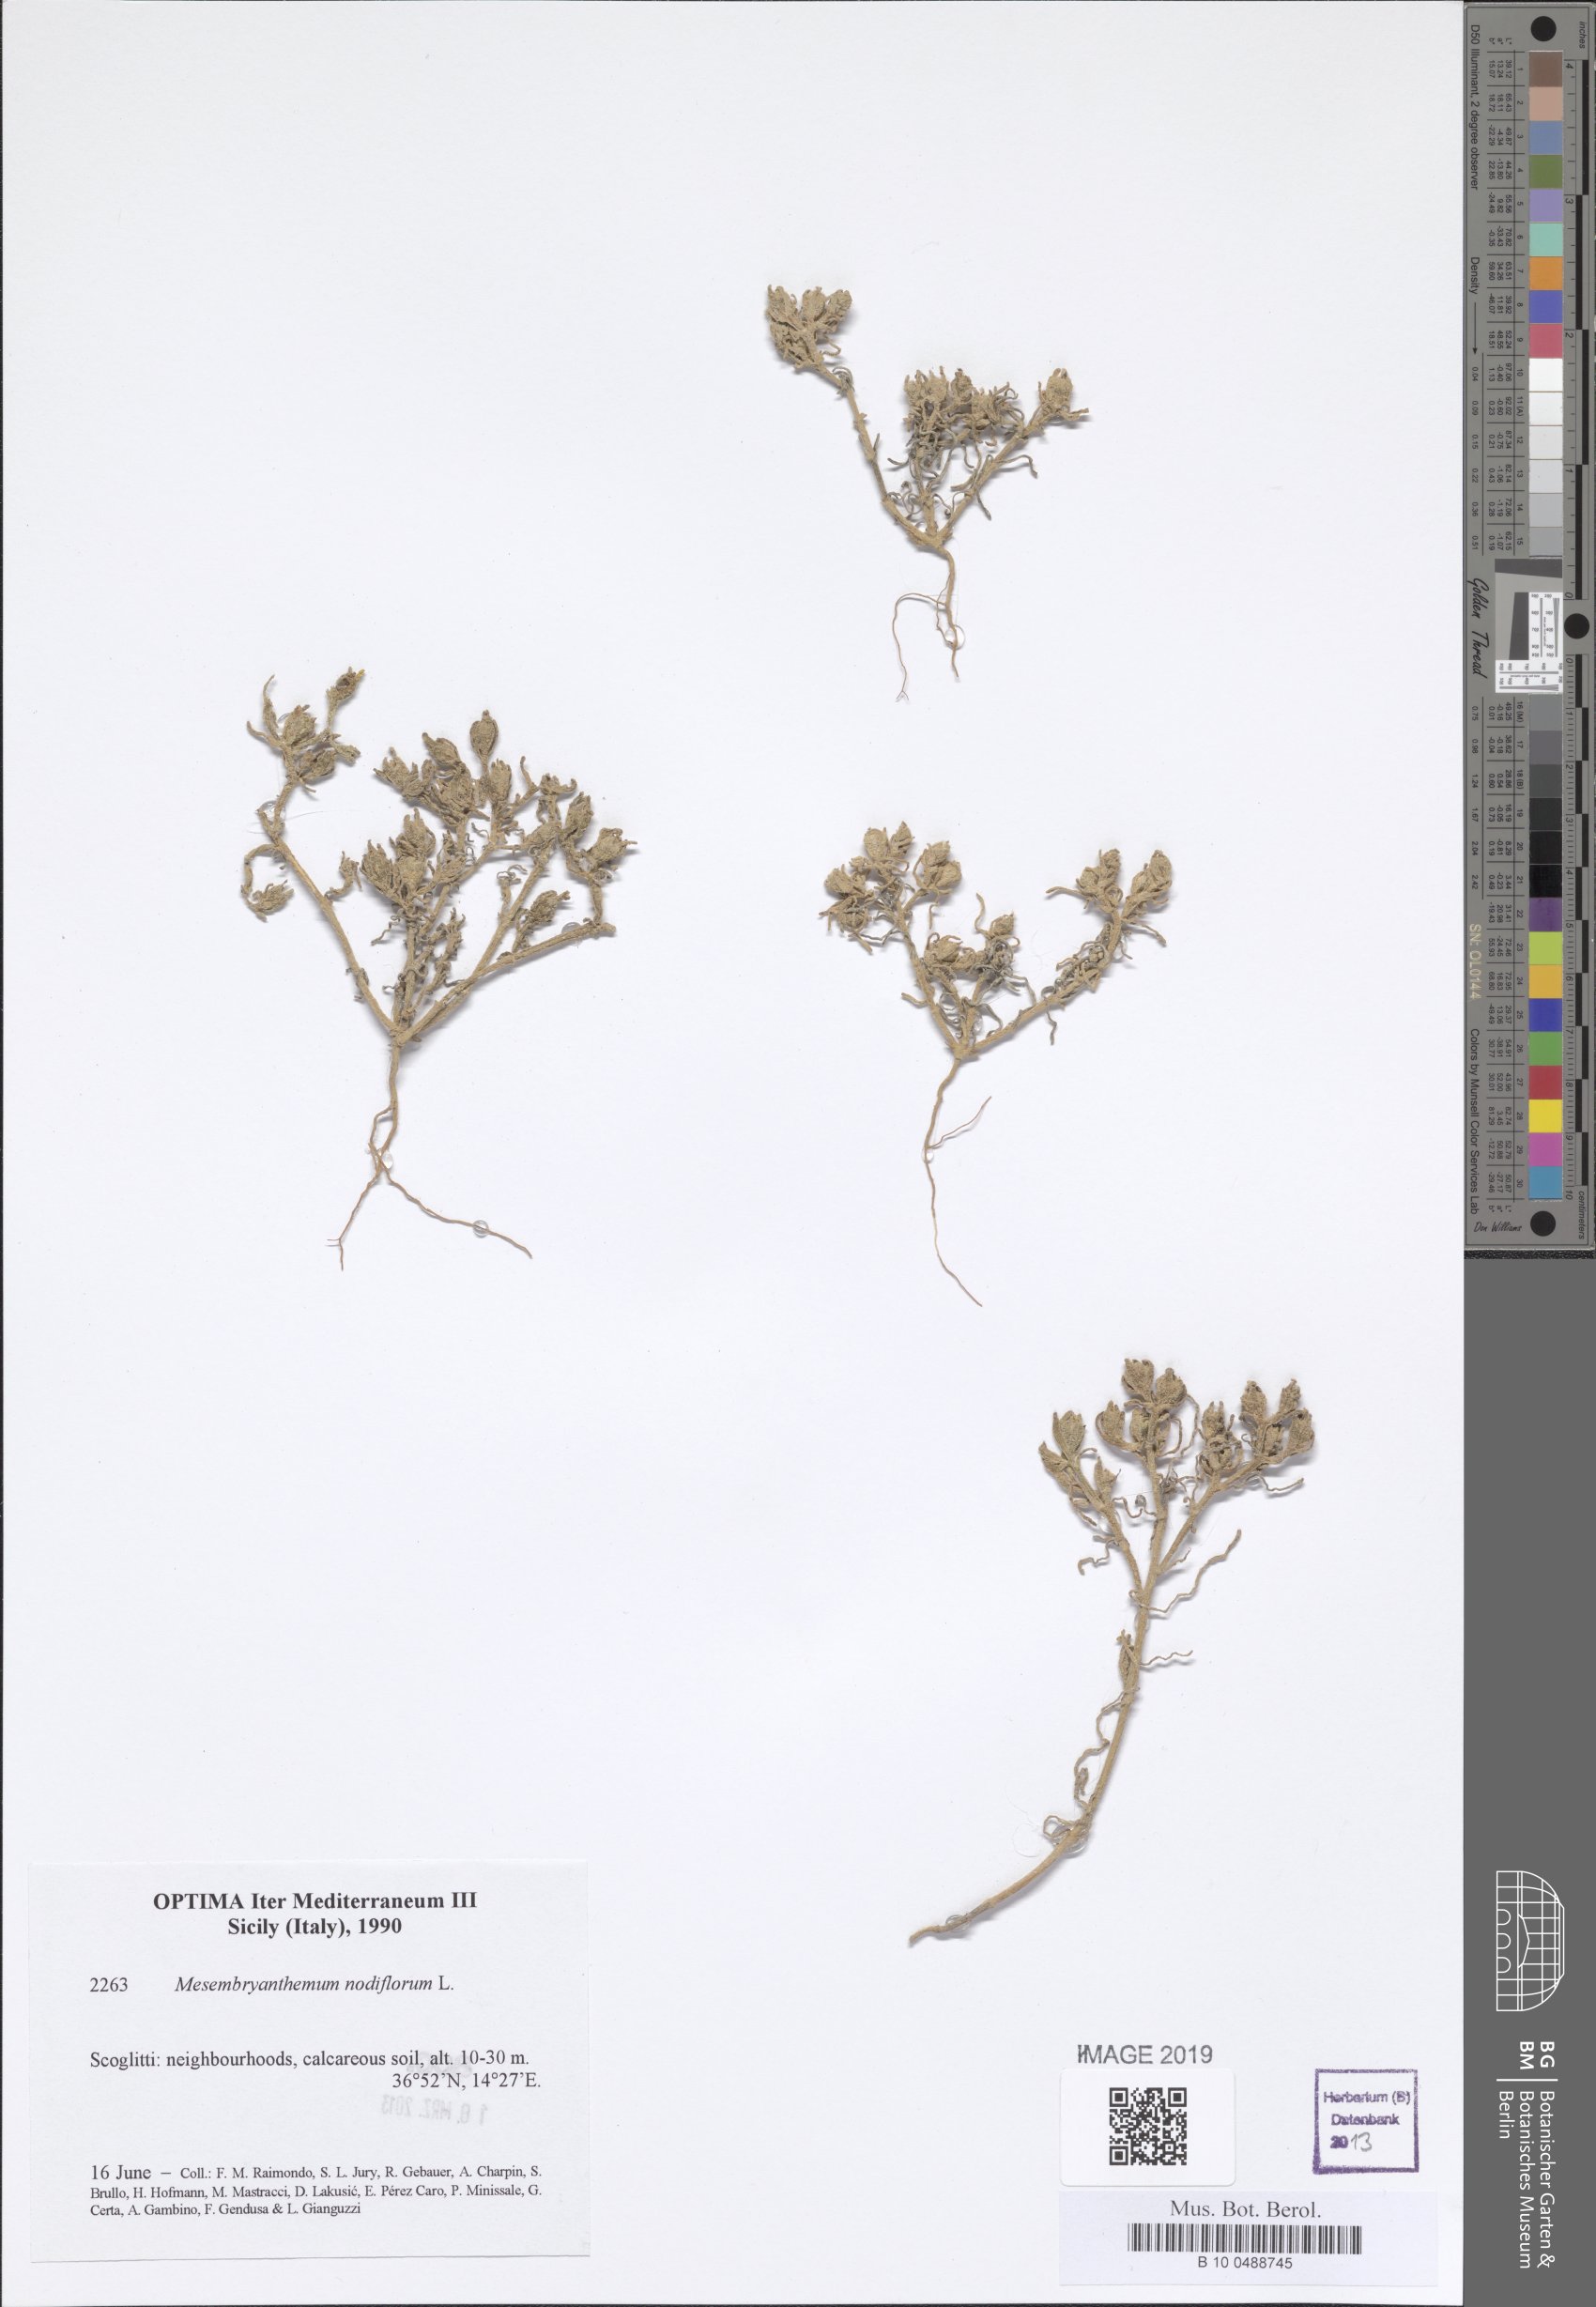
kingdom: Plantae
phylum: Tracheophyta
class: Magnoliopsida
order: Caryophyllales
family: Aizoaceae
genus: Mesembryanthemum
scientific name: Mesembryanthemum nodiflorum
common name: Slenderleaf iceplant
